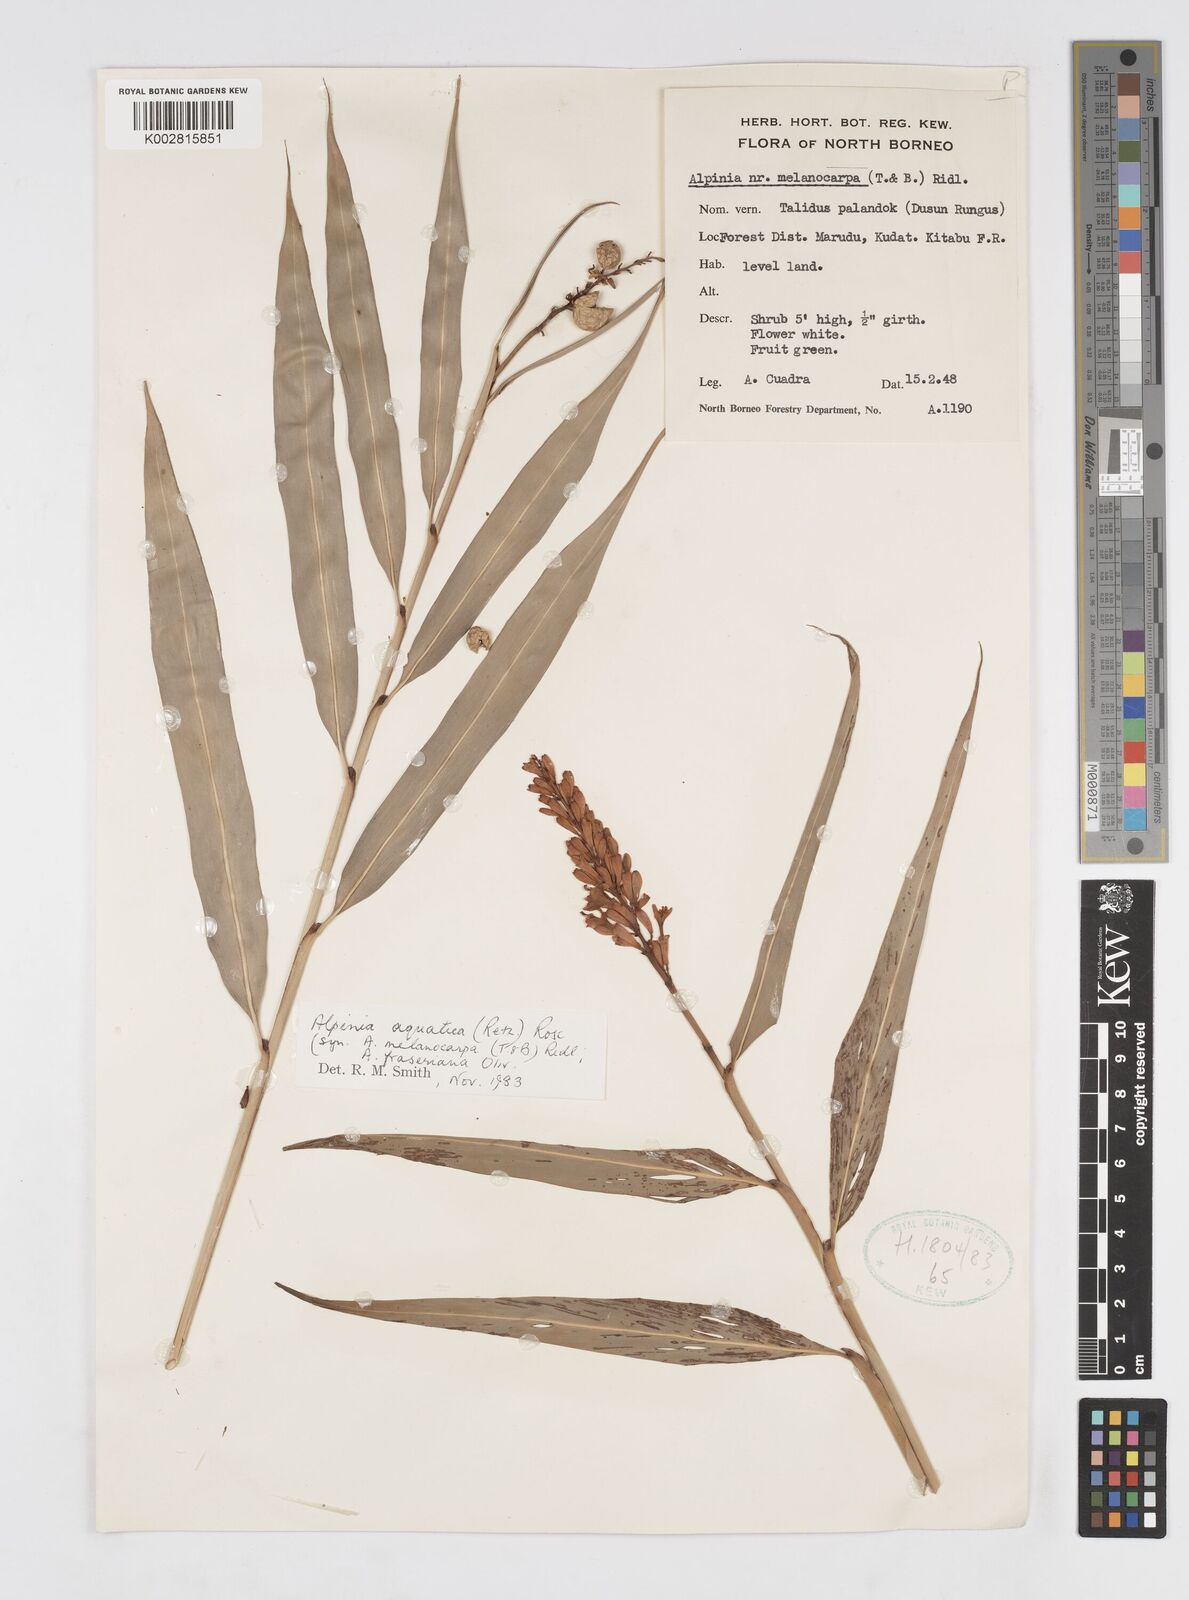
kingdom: Plantae
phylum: Tracheophyta
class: Liliopsida
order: Zingiberales
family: Zingiberaceae
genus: Alpinia
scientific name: Alpinia aquatica
